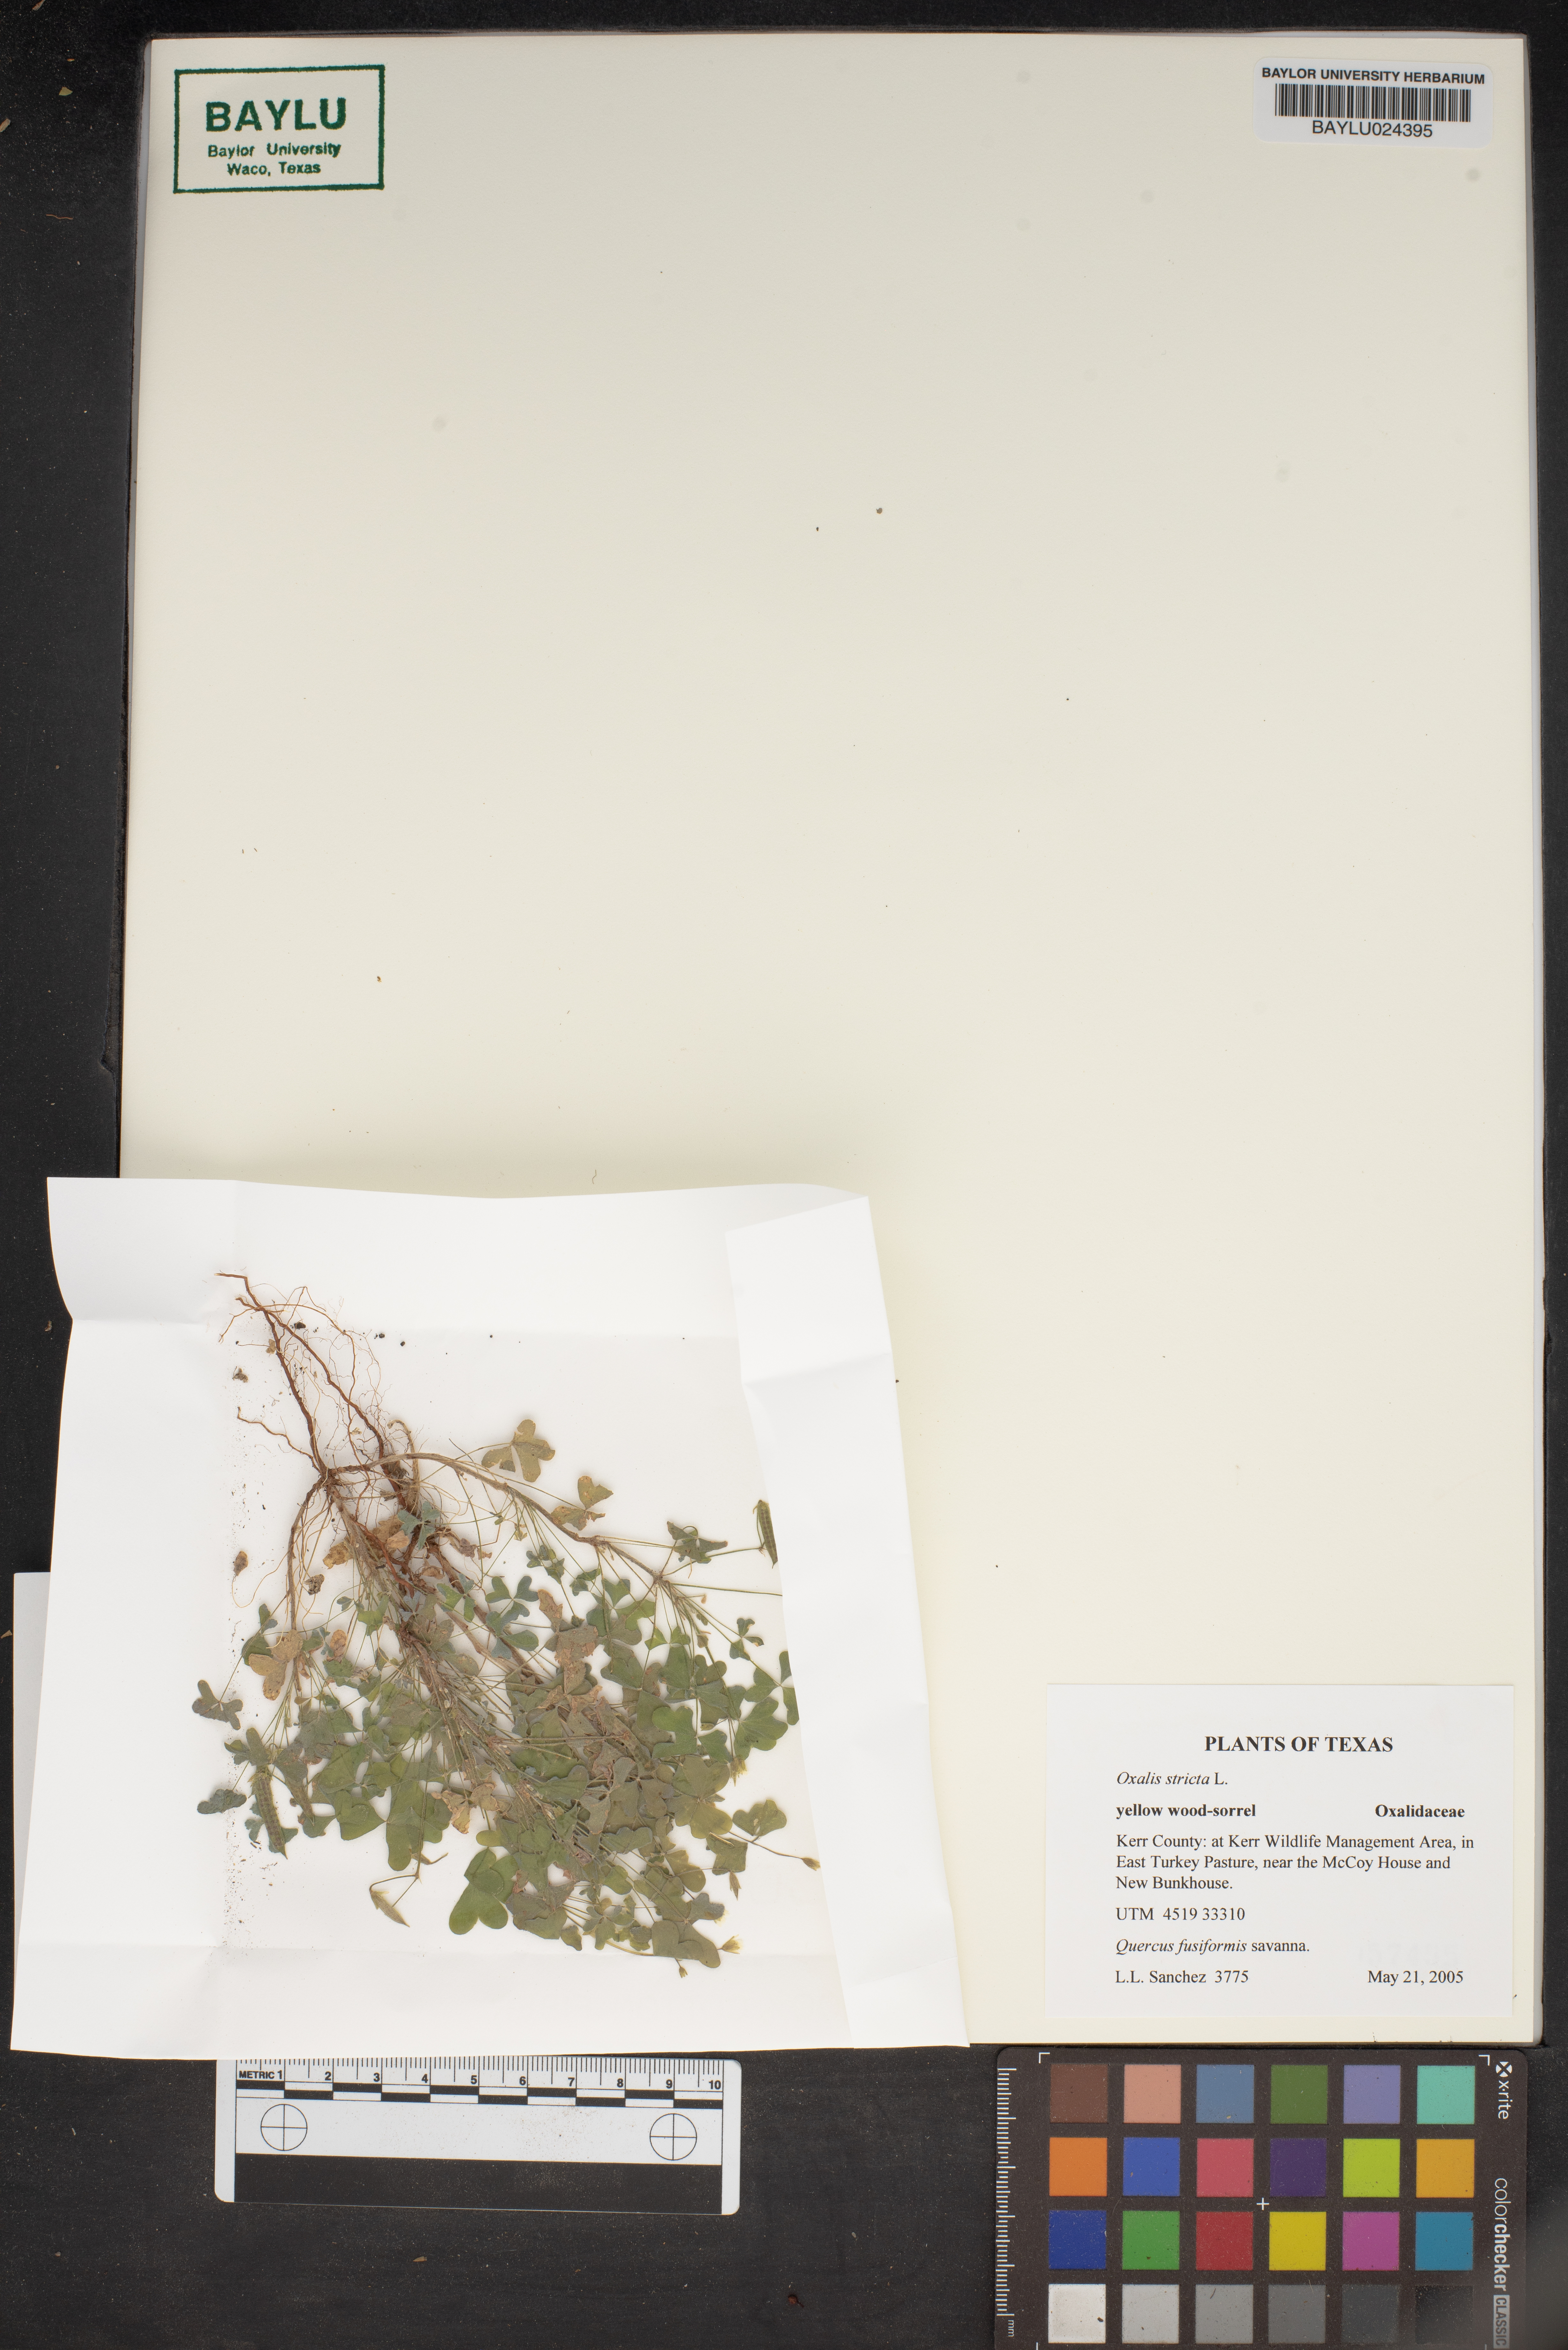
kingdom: Plantae
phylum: Tracheophyta
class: Magnoliopsida
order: Oxalidales
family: Oxalidaceae
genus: Oxalis
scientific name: Oxalis stricta
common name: Upright yellow-sorrel
